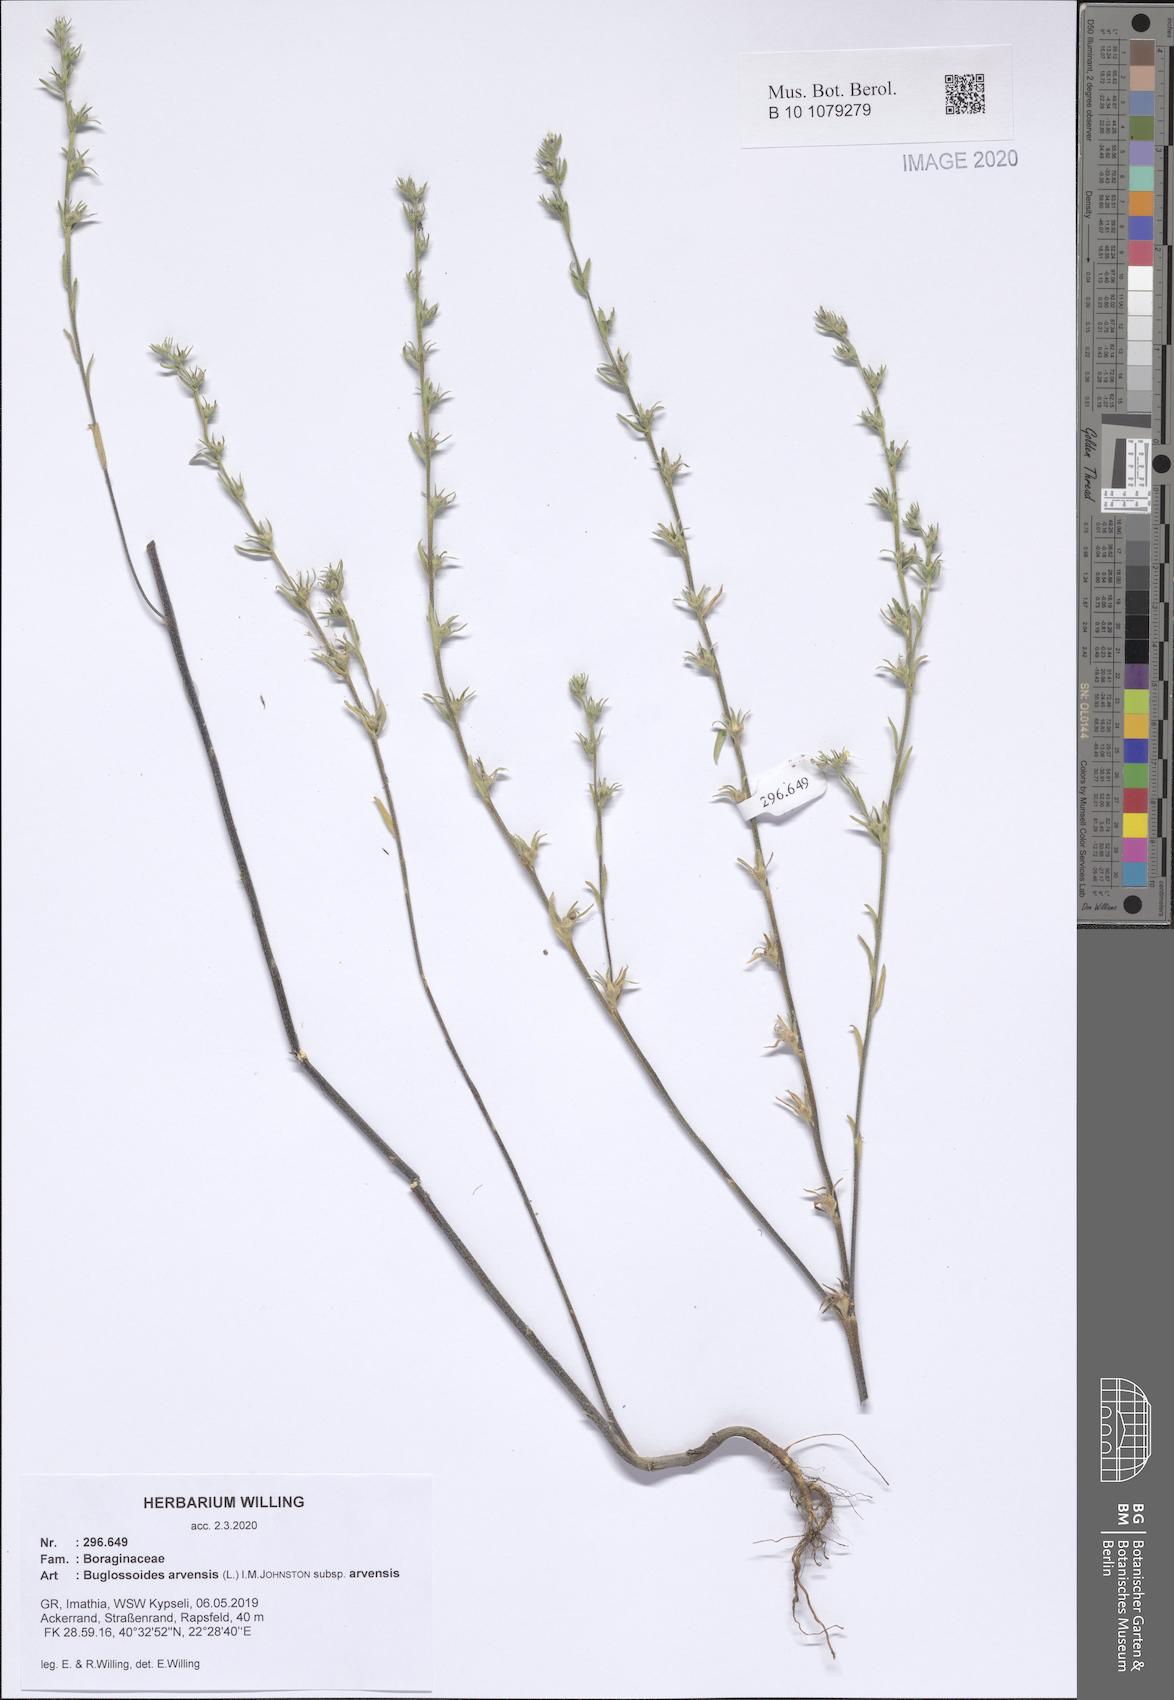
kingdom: Plantae
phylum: Tracheophyta
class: Magnoliopsida
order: Boraginales
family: Boraginaceae
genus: Buglossoides
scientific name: Buglossoides arvensis
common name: Corn gromwell
